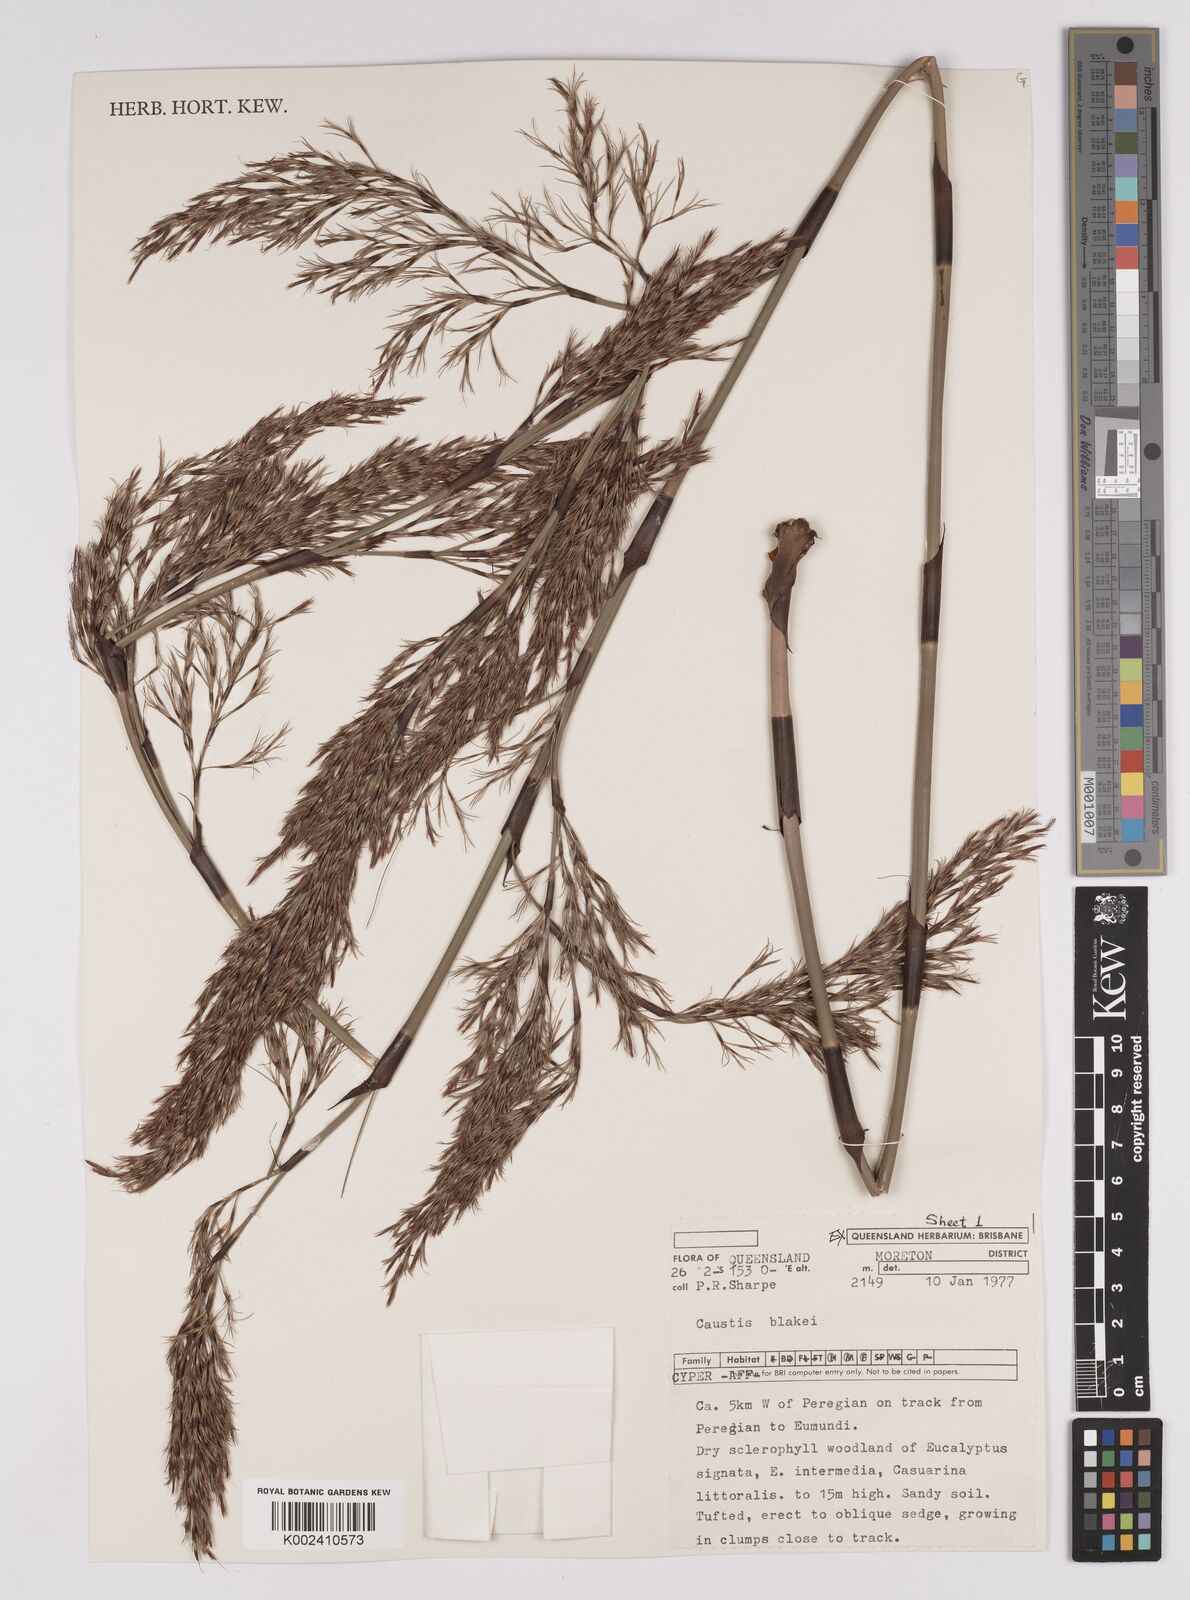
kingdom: Plantae
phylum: Tracheophyta
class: Liliopsida
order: Poales
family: Cyperaceae
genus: Caustis
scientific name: Caustis blakei
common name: Foxtail-fern
